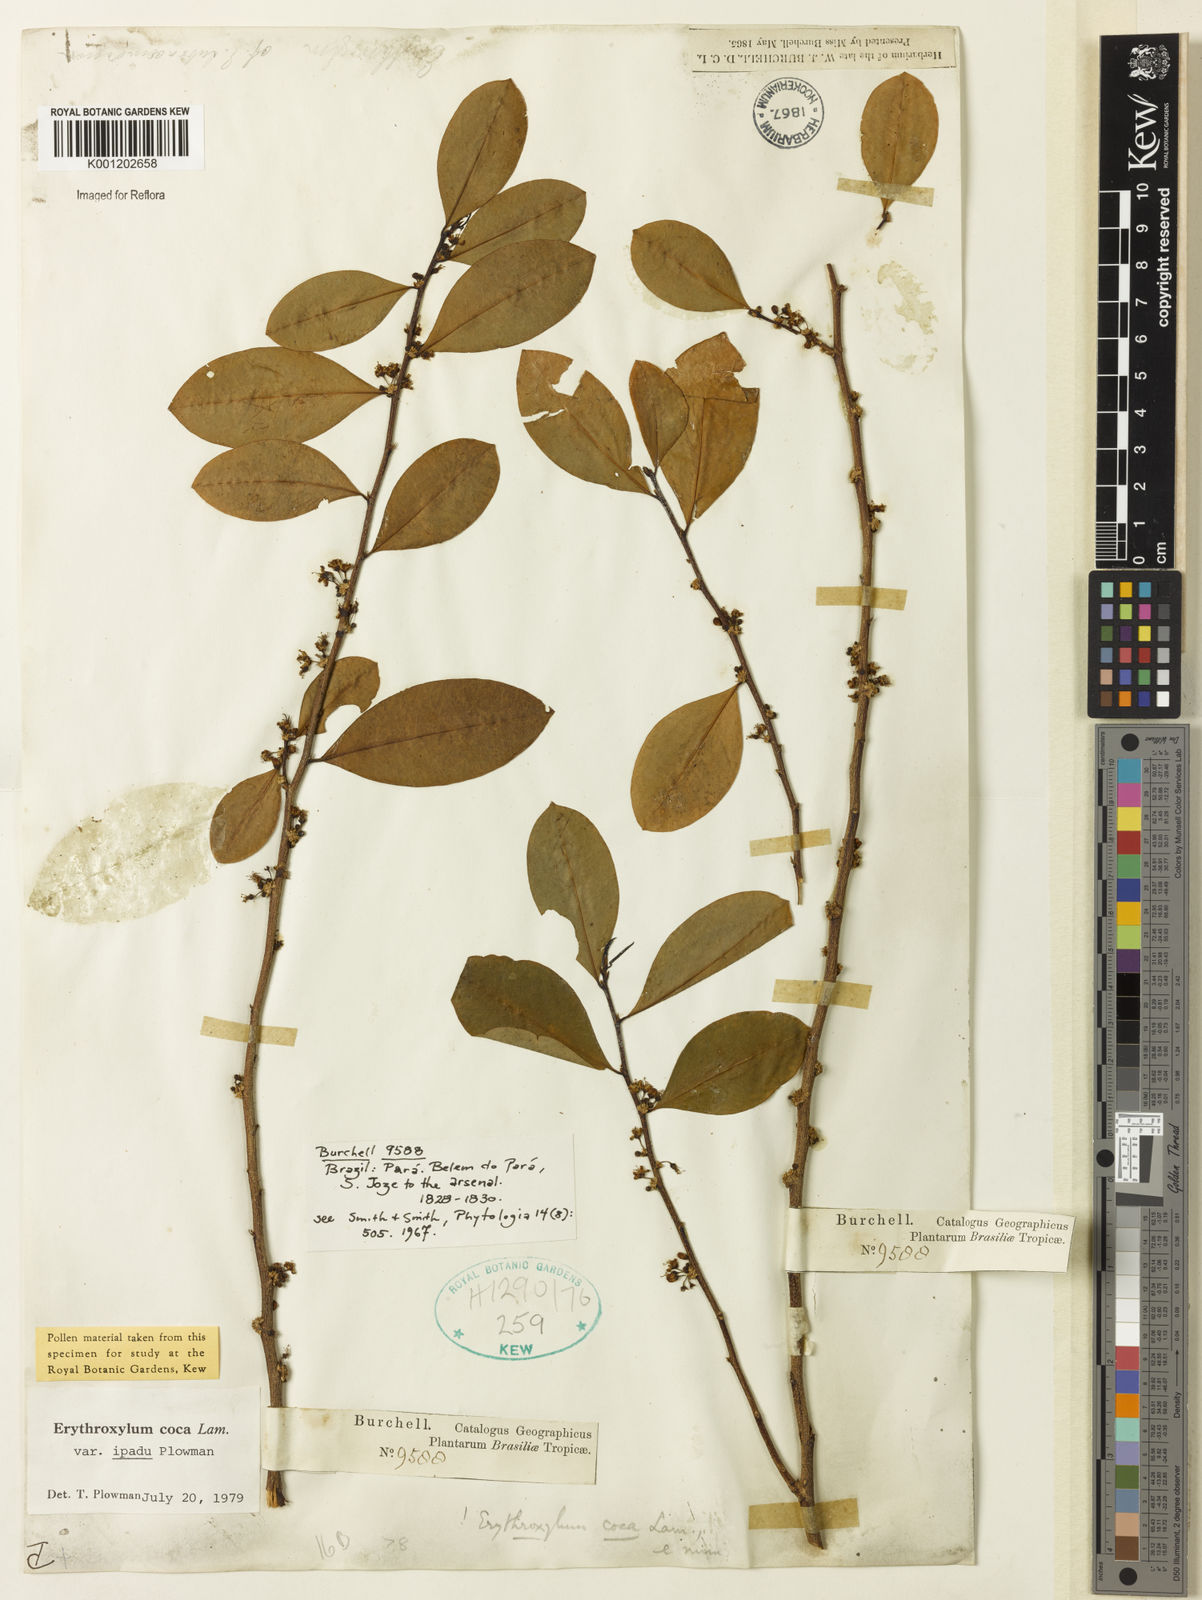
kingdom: Plantae
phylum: Tracheophyta
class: Magnoliopsida
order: Malpighiales
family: Erythroxylaceae
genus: Erythroxylum
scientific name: Erythroxylum coca
